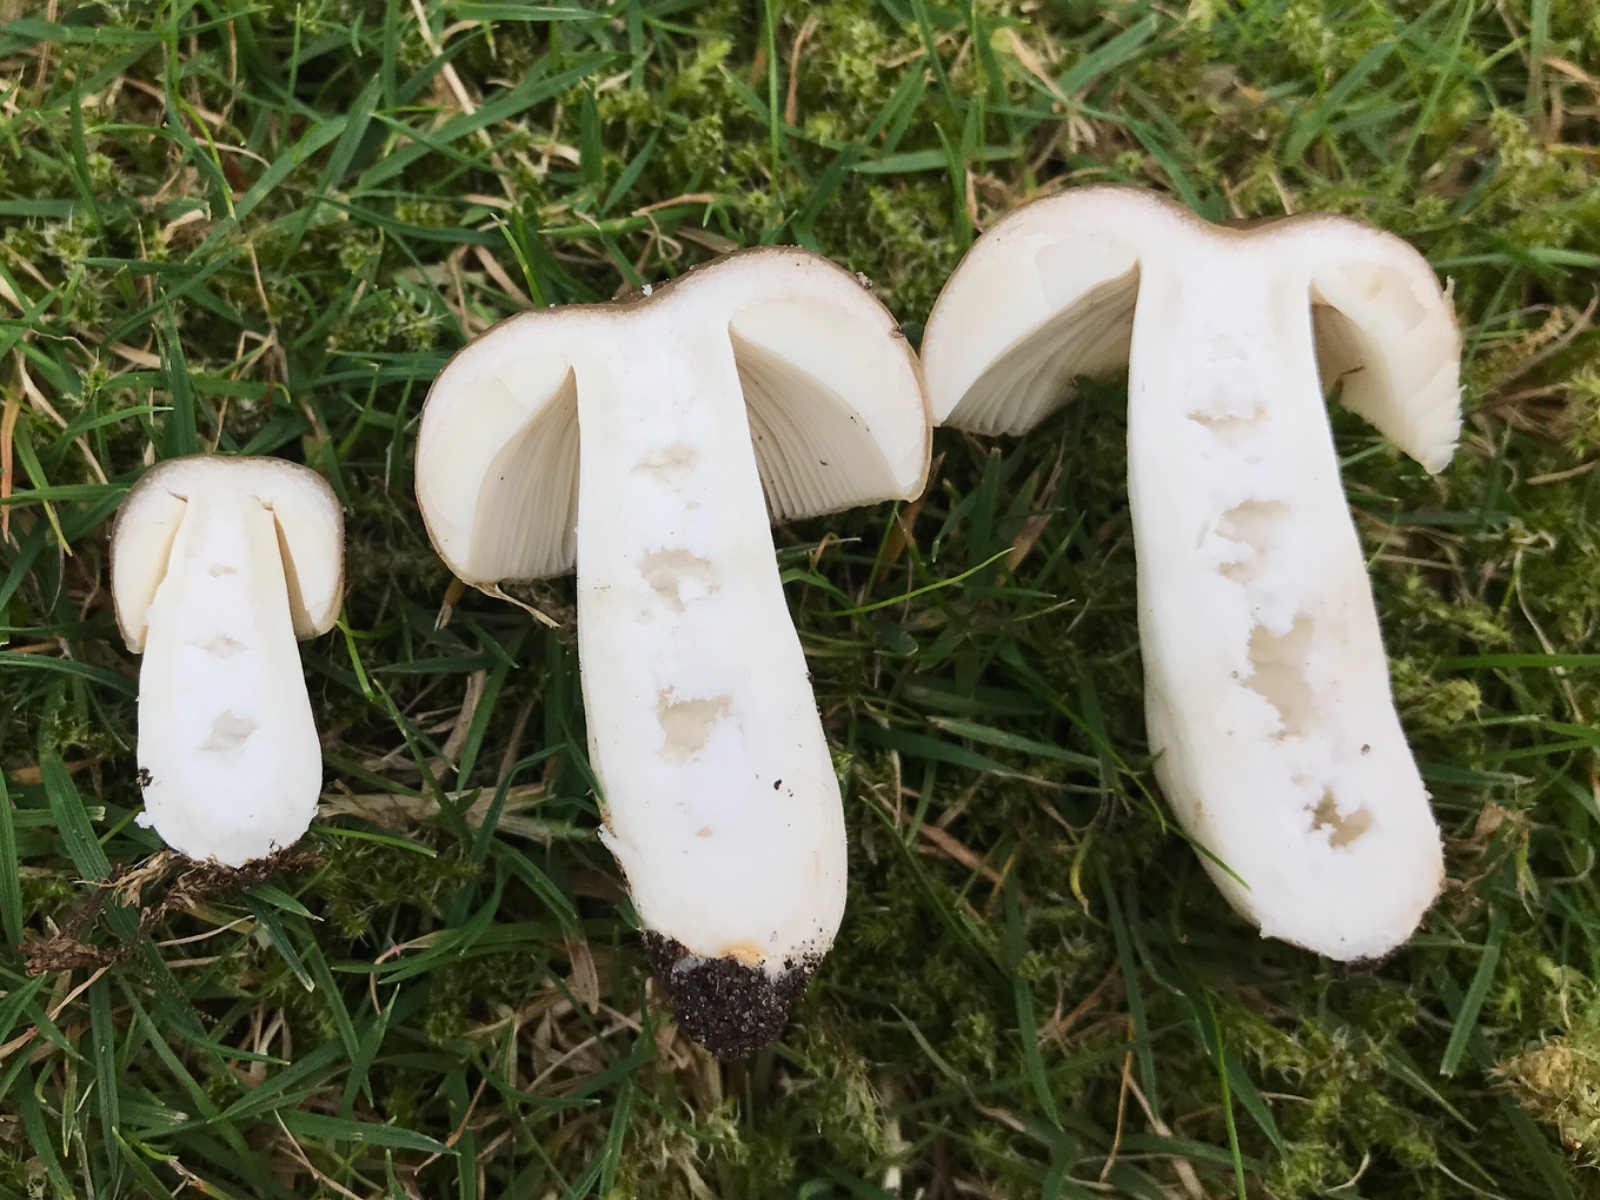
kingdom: Fungi
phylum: Basidiomycota
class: Agaricomycetes
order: Russulales
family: Russulaceae
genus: Russula
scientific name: Russula recondita
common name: mild kam-skørhat
